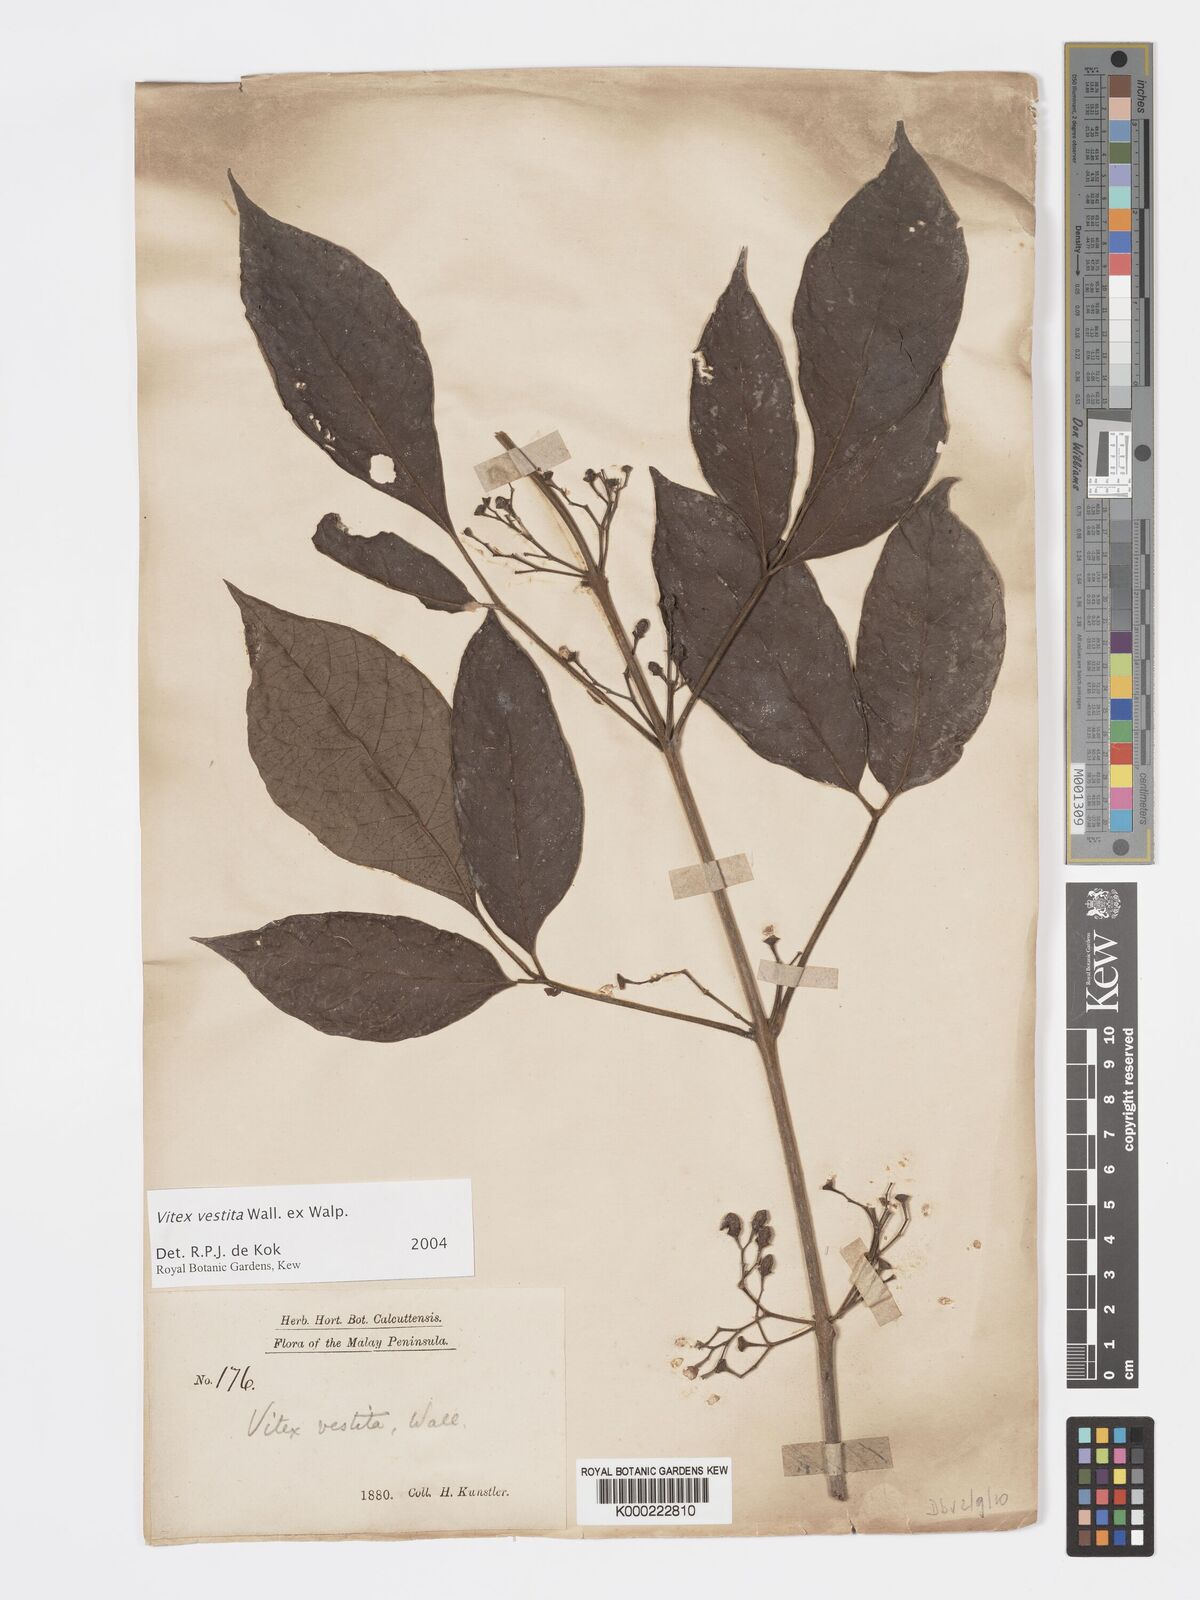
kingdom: Plantae
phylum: Tracheophyta
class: Magnoliopsida
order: Lamiales
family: Lamiaceae
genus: Vitex
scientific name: Vitex vestita
